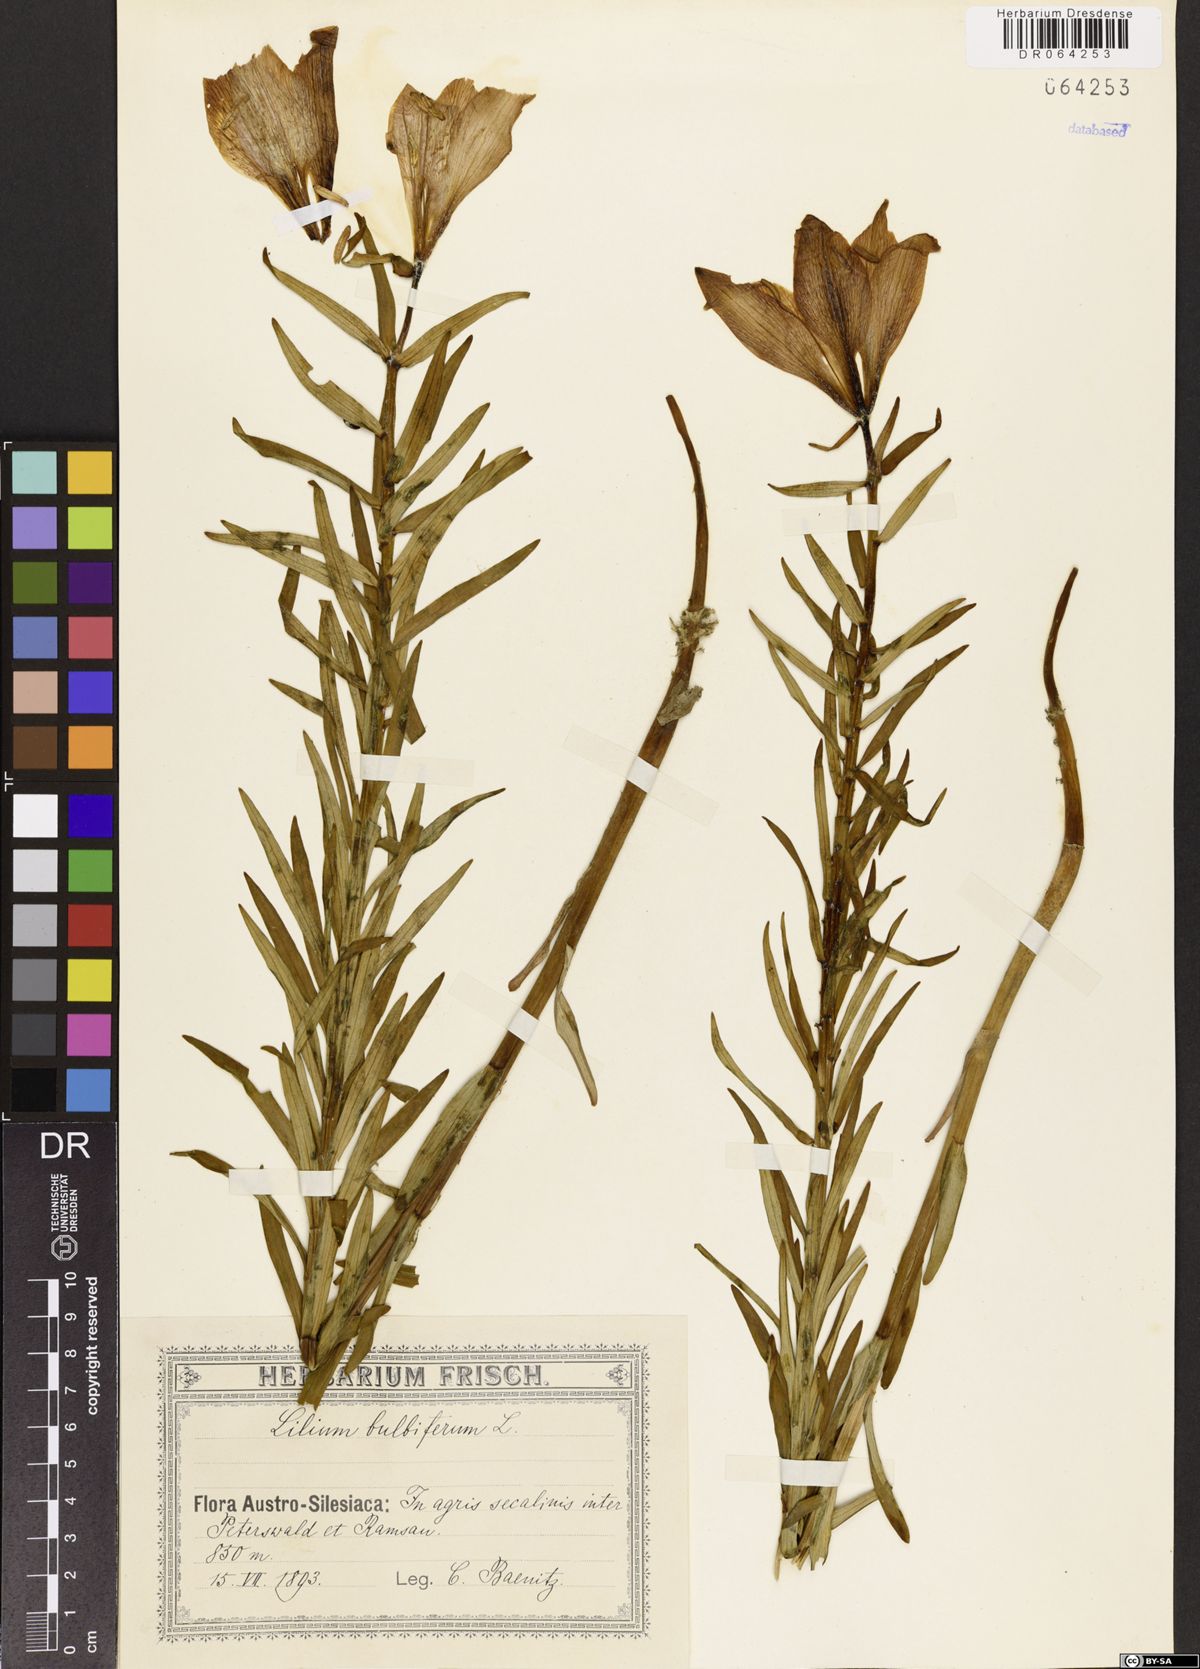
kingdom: Plantae
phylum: Tracheophyta
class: Liliopsida
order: Liliales
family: Liliaceae
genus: Lilium
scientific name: Lilium bulbiferum
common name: Orange lily
